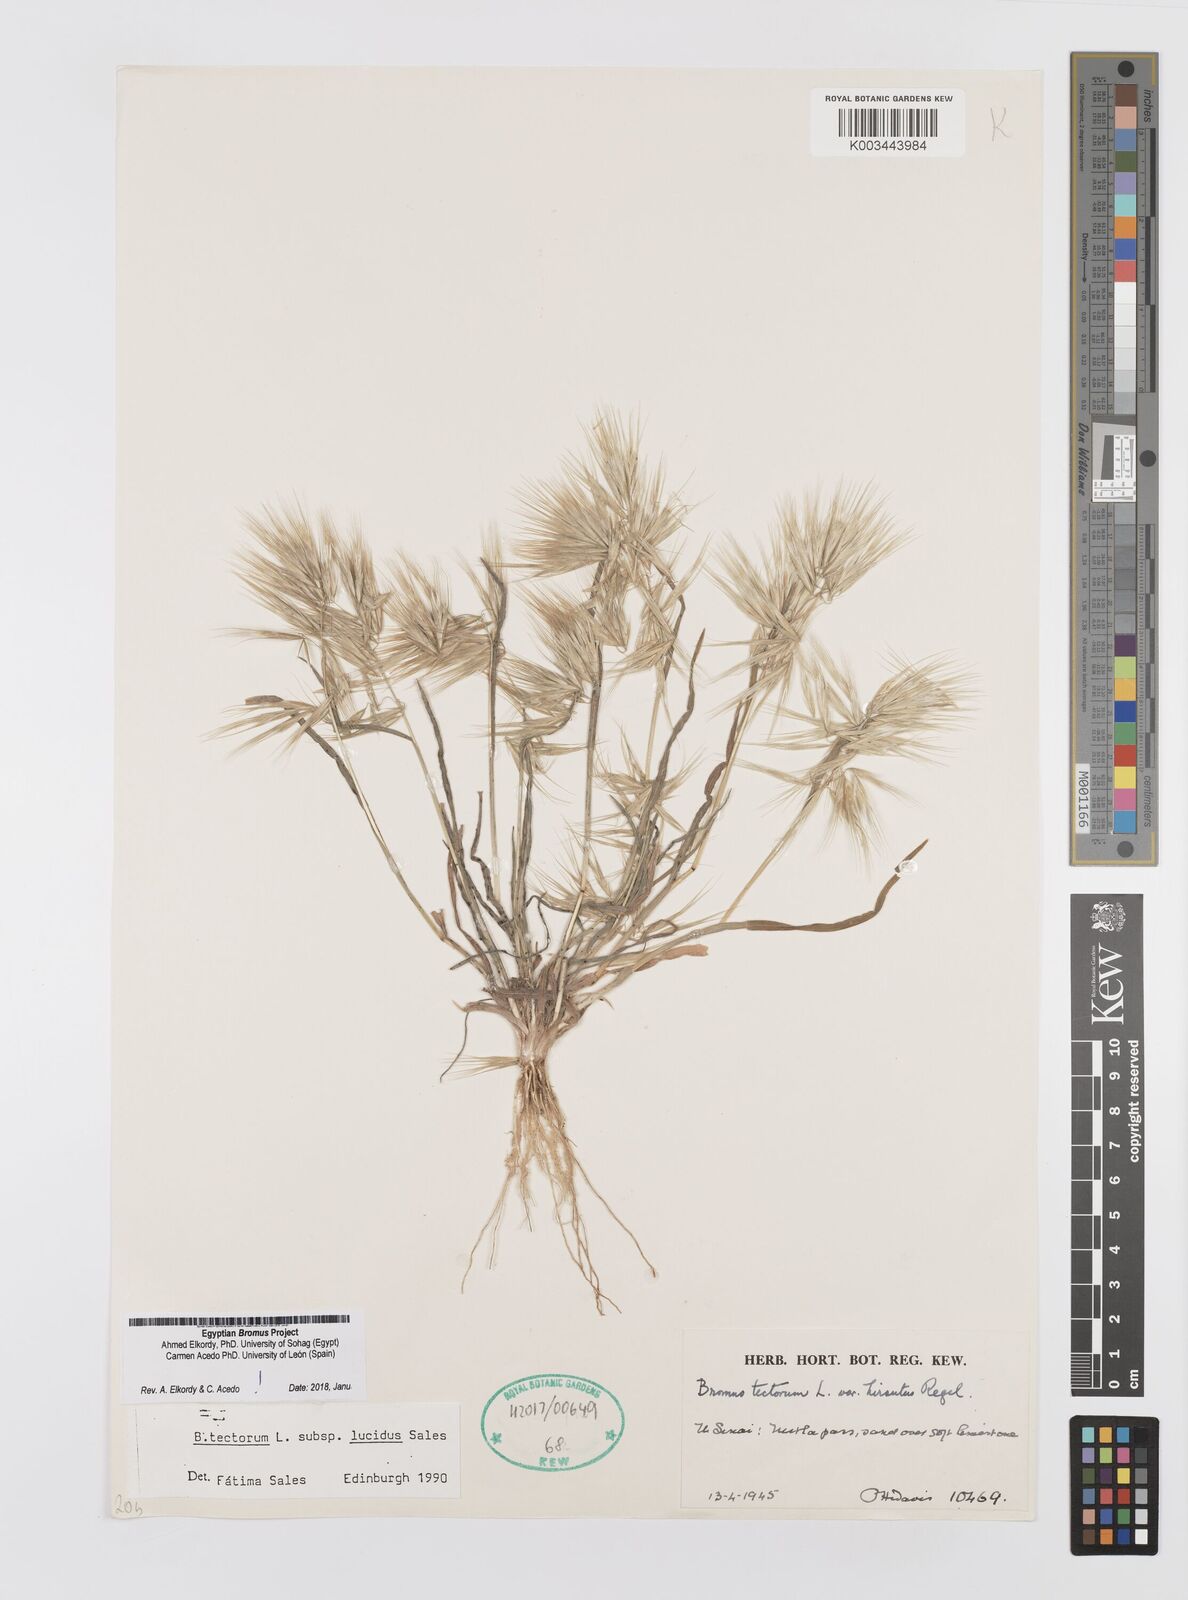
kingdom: Plantae
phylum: Tracheophyta
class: Liliopsida
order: Poales
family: Poaceae
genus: Bromus
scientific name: Bromus moeszii
